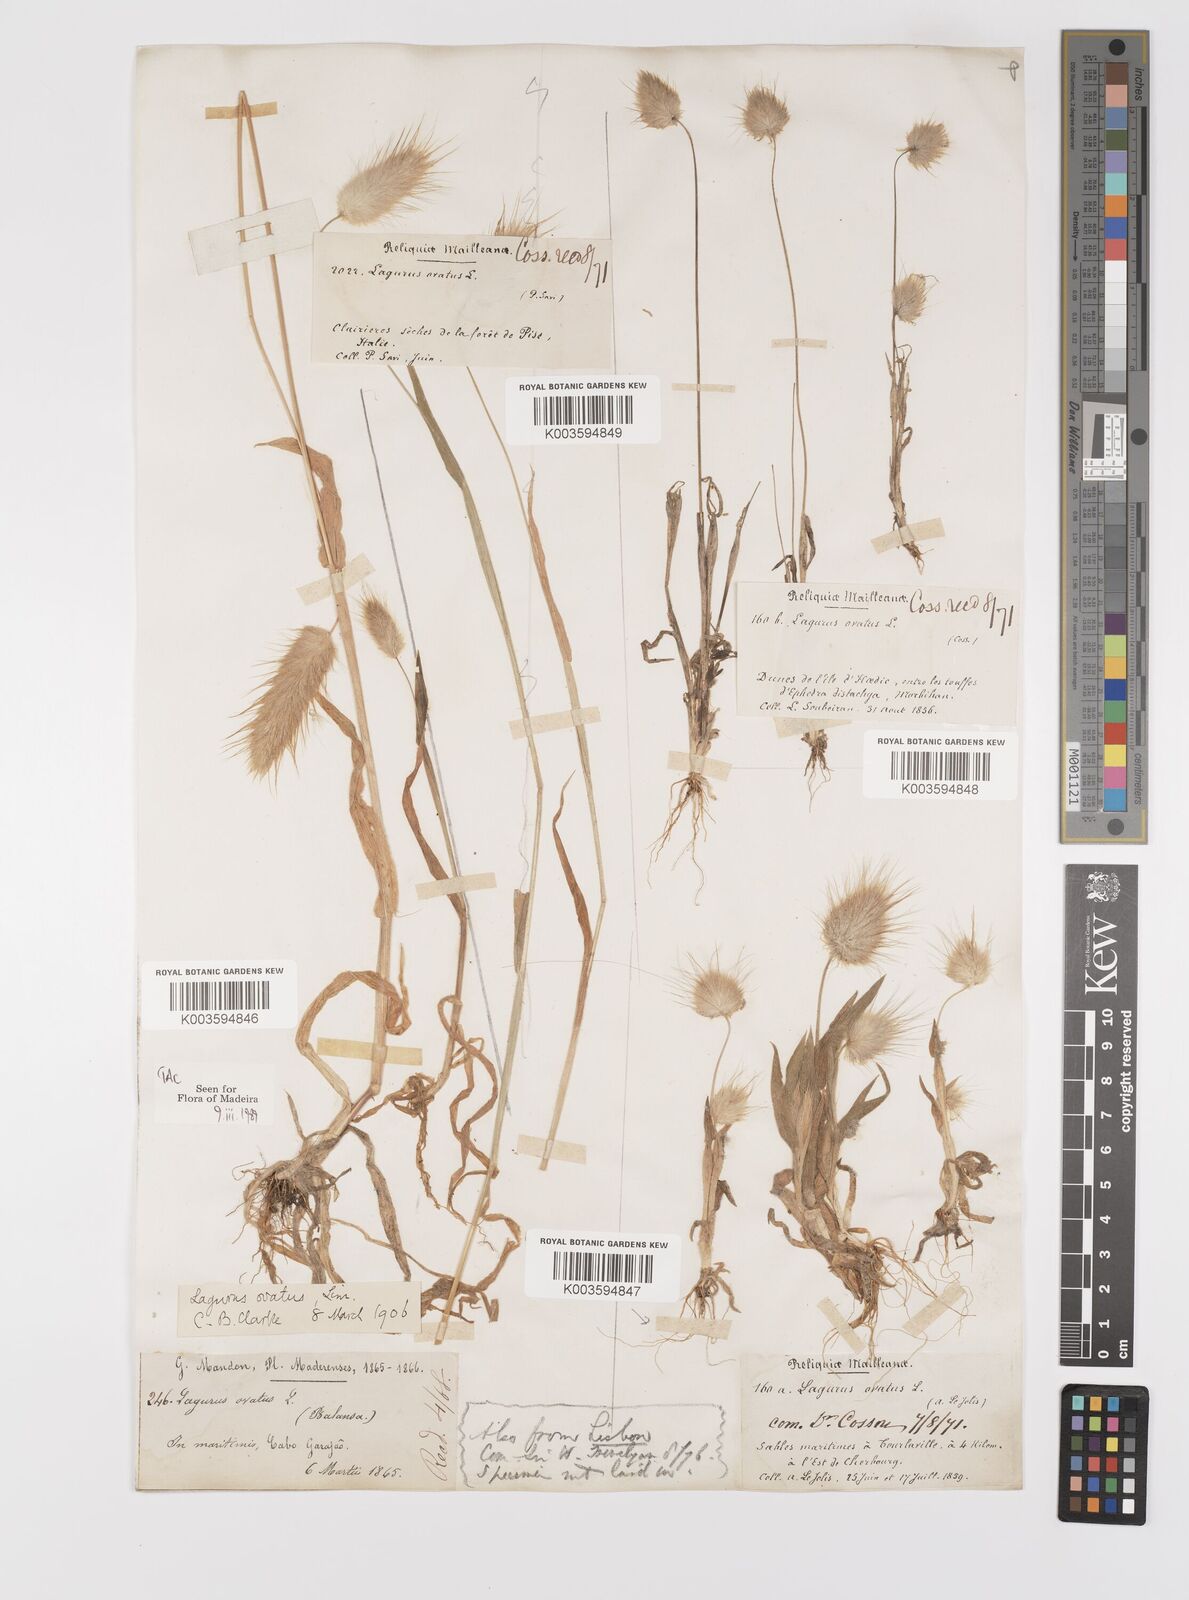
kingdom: Plantae
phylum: Tracheophyta
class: Liliopsida
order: Poales
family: Poaceae
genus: Lagurus
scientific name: Lagurus ovatus
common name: Hare's-tail
